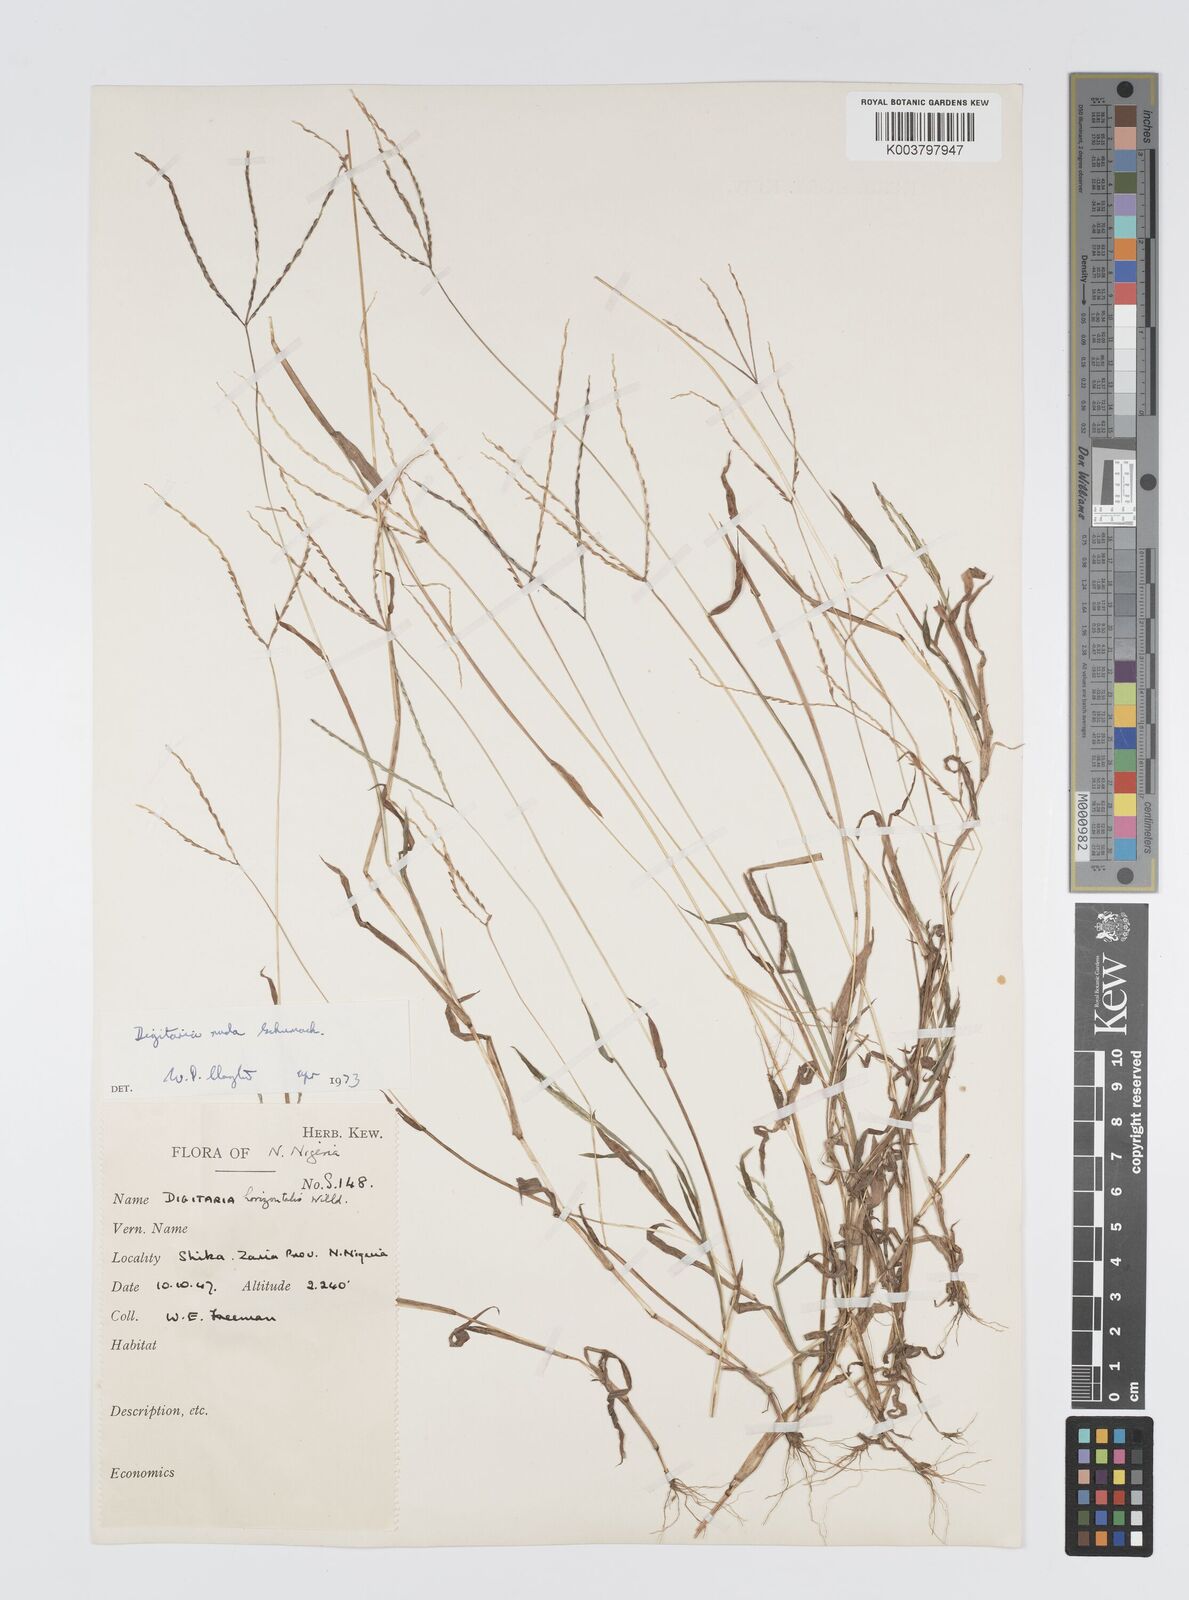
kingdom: Plantae
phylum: Tracheophyta
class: Liliopsida
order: Poales
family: Poaceae
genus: Digitaria
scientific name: Digitaria nuda
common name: Naked crabgrass
